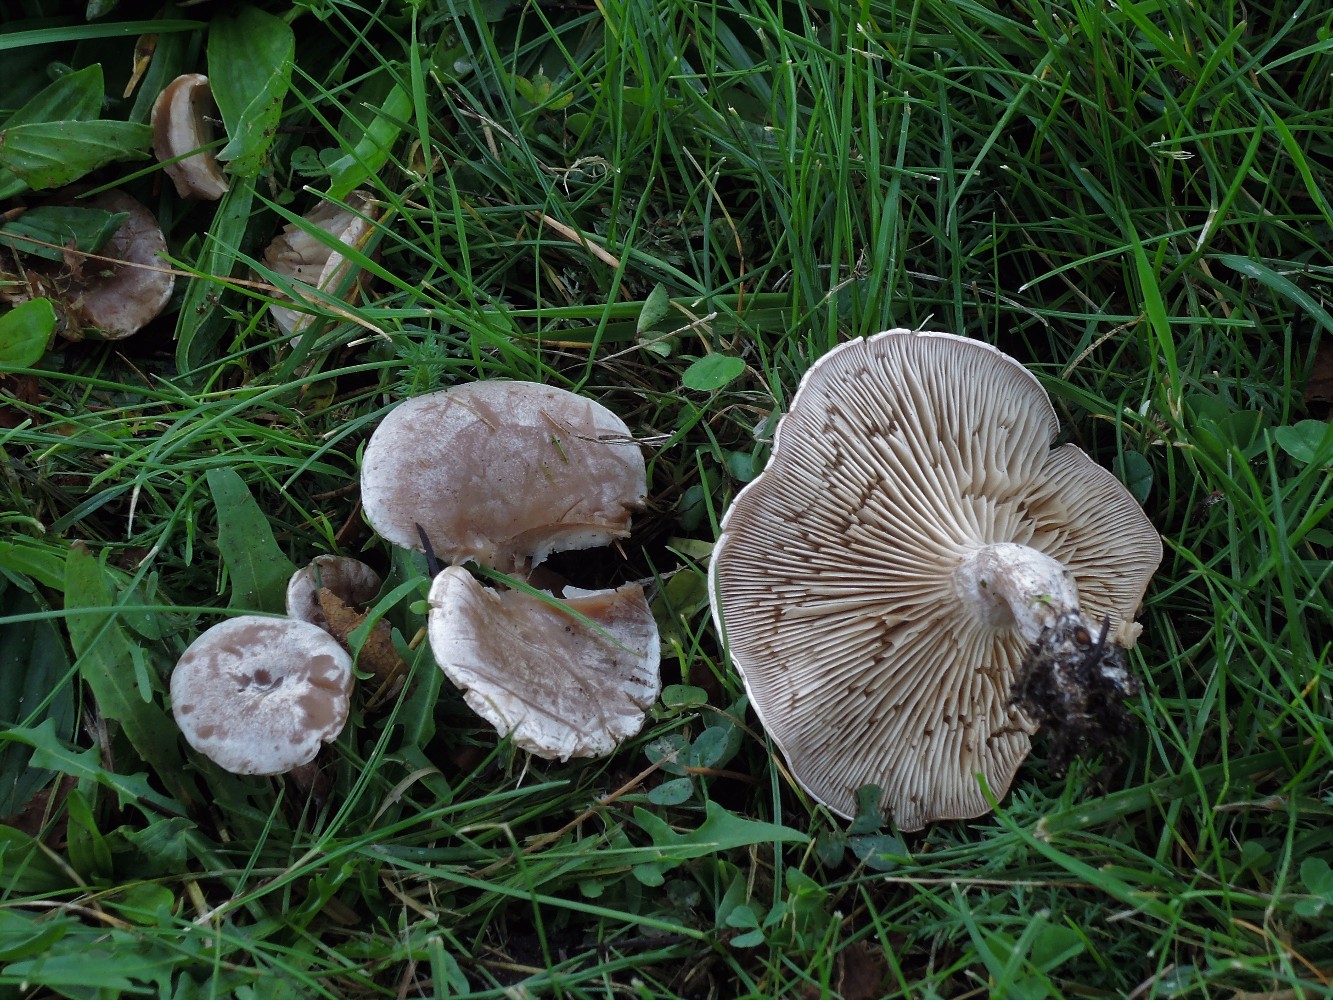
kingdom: Fungi
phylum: Basidiomycota
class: Agaricomycetes
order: Agaricales
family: Tricholomataceae
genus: Clitocybe
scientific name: Clitocybe rivulosa
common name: eng-tragthat
